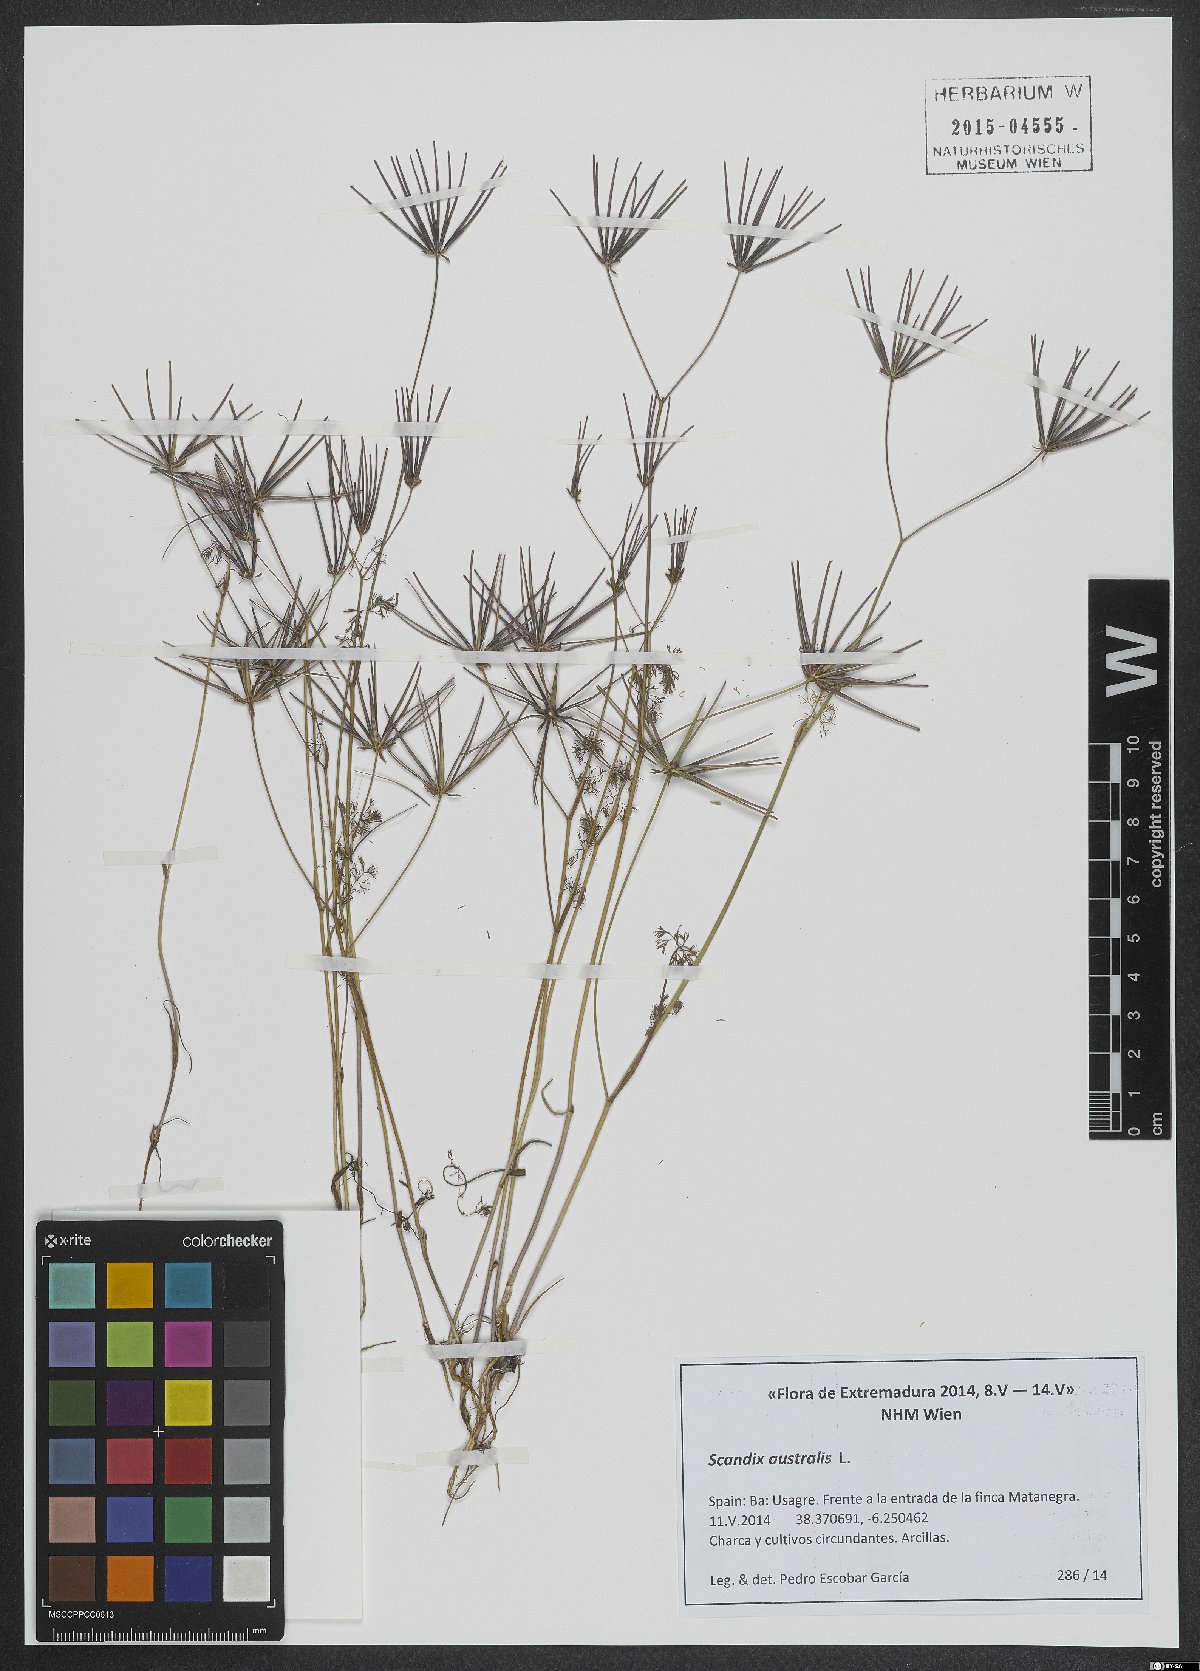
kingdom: Plantae
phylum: Tracheophyta
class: Magnoliopsida
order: Apiales
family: Apiaceae
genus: Scandix
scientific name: Scandix australis
